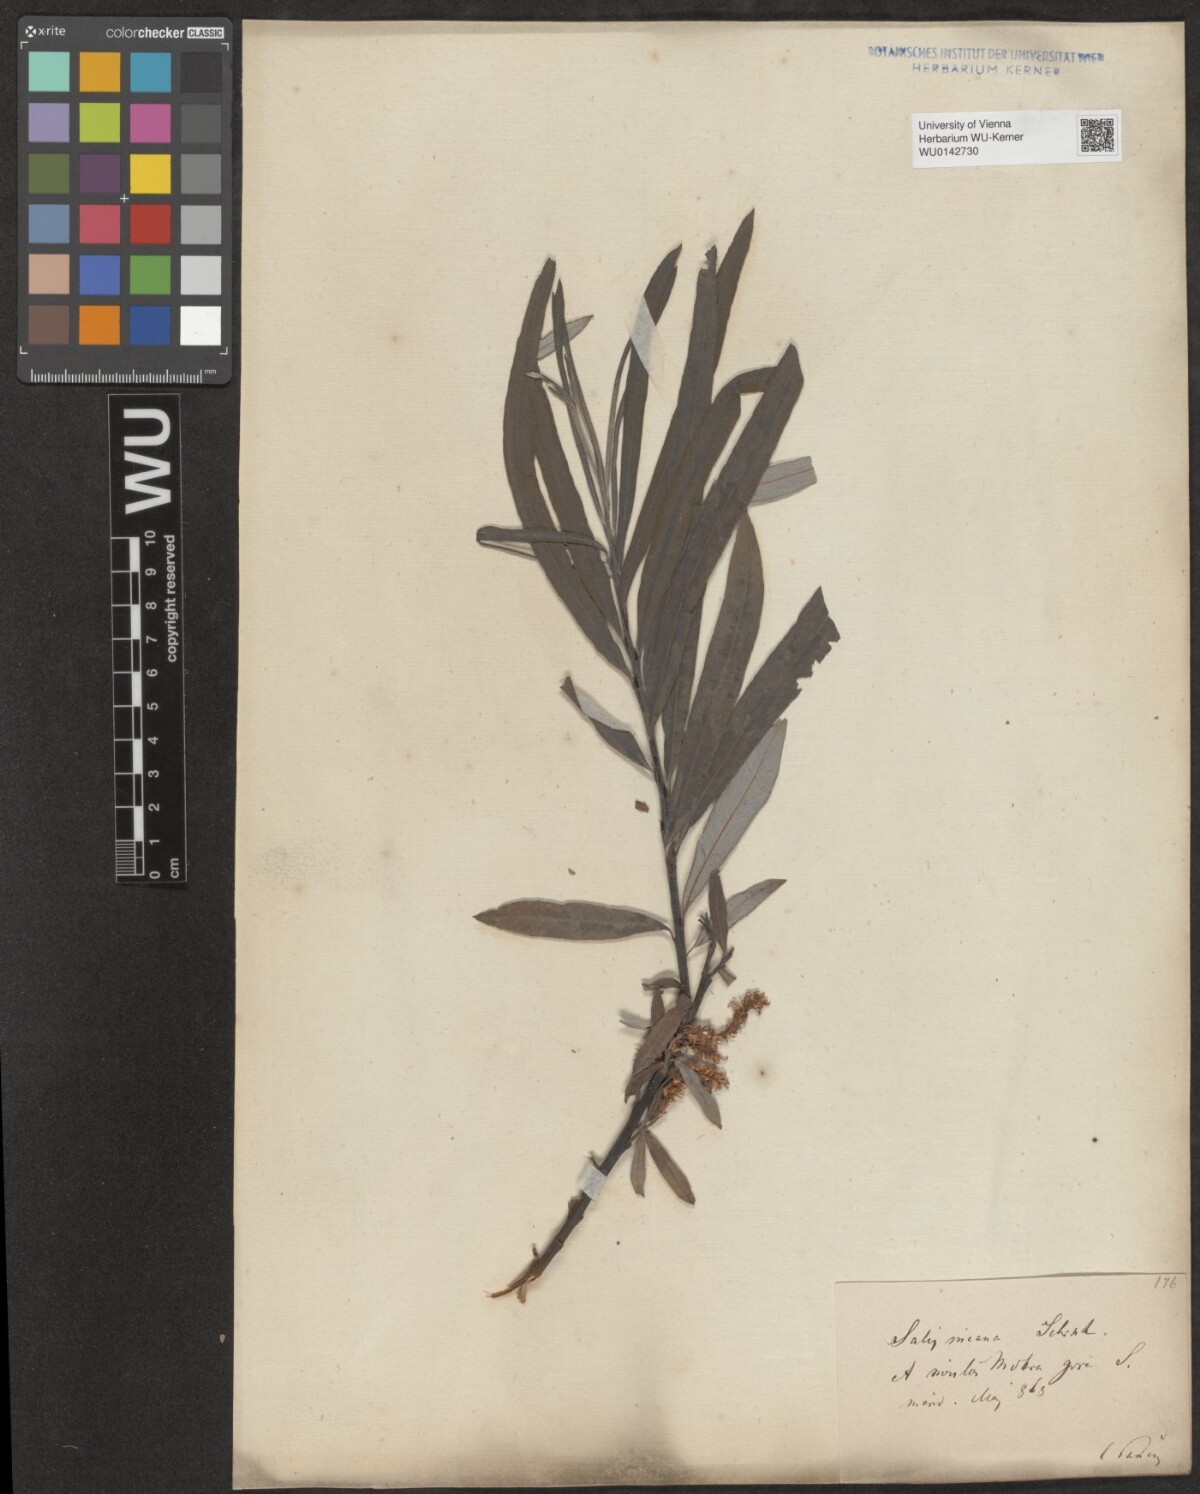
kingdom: Plantae
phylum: Tracheophyta
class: Magnoliopsida
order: Malpighiales
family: Salicaceae
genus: Salix
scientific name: Salix eleagnos
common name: Elaeagnus willow
